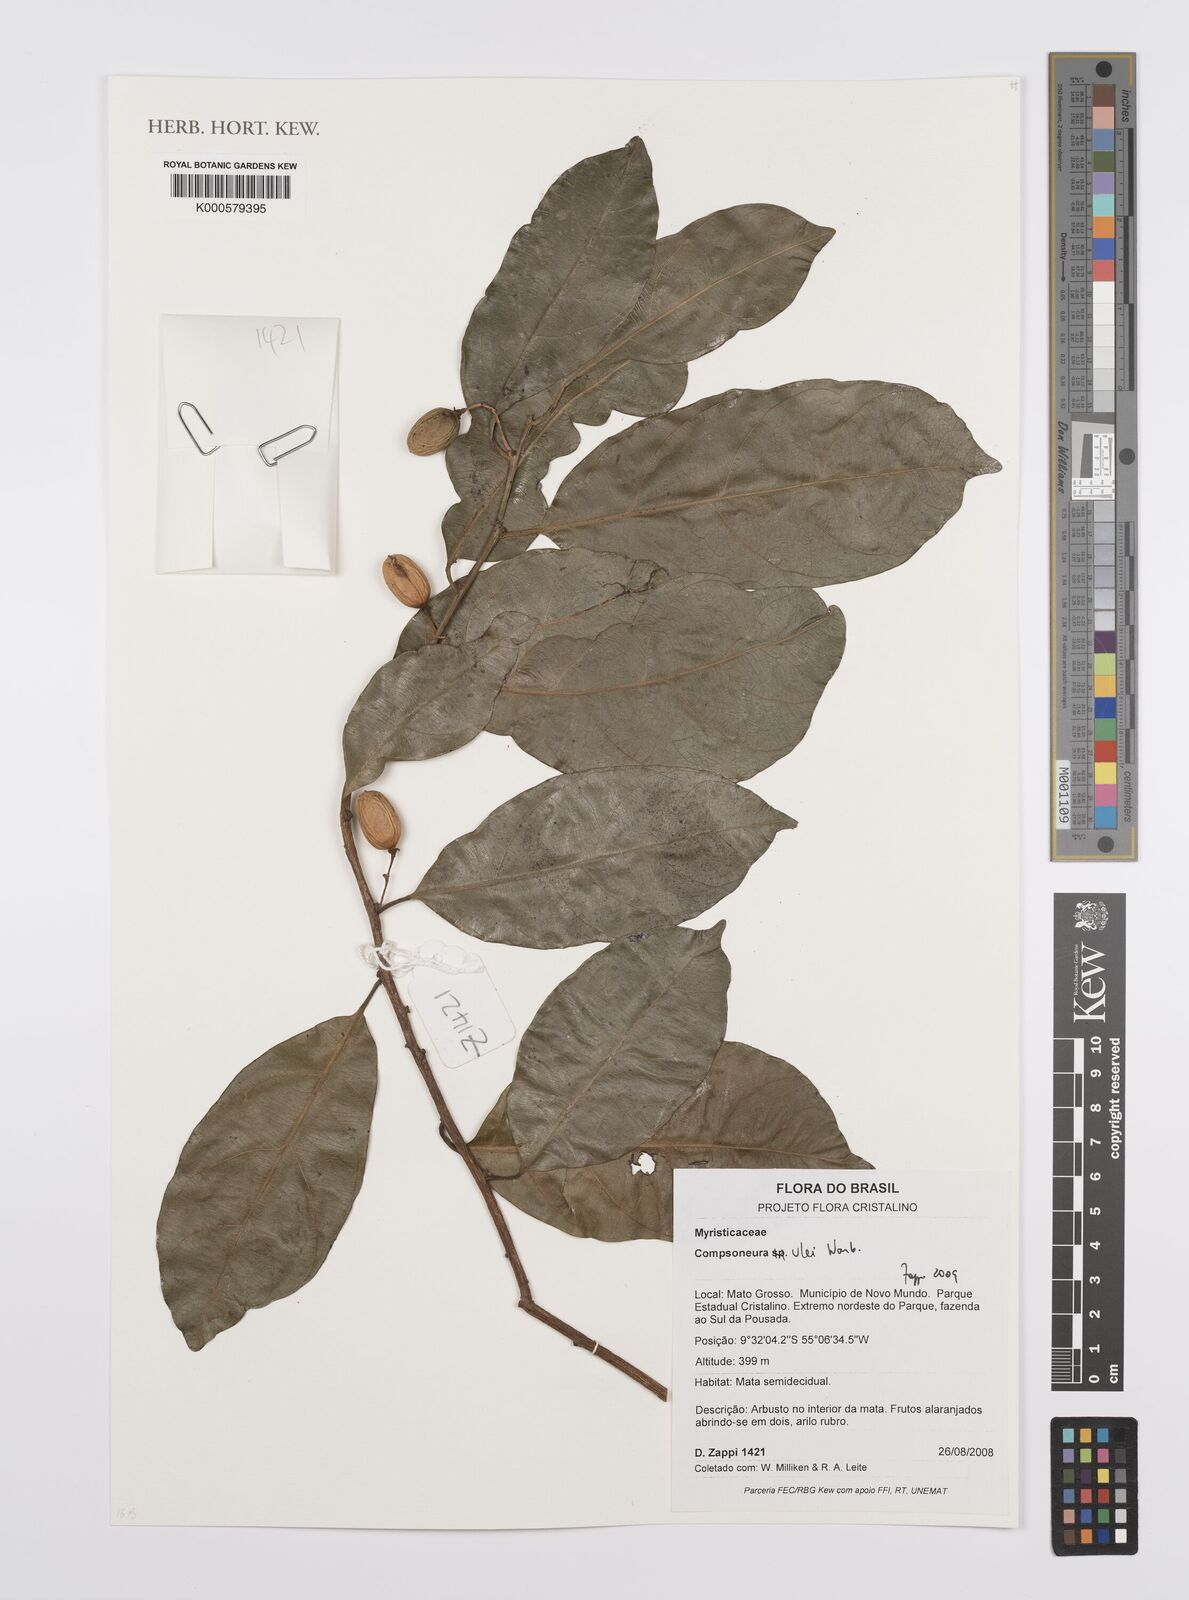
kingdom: Plantae
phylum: Tracheophyta
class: Magnoliopsida
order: Magnoliales
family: Myristicaceae
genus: Compsoneura
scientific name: Compsoneura ulei
